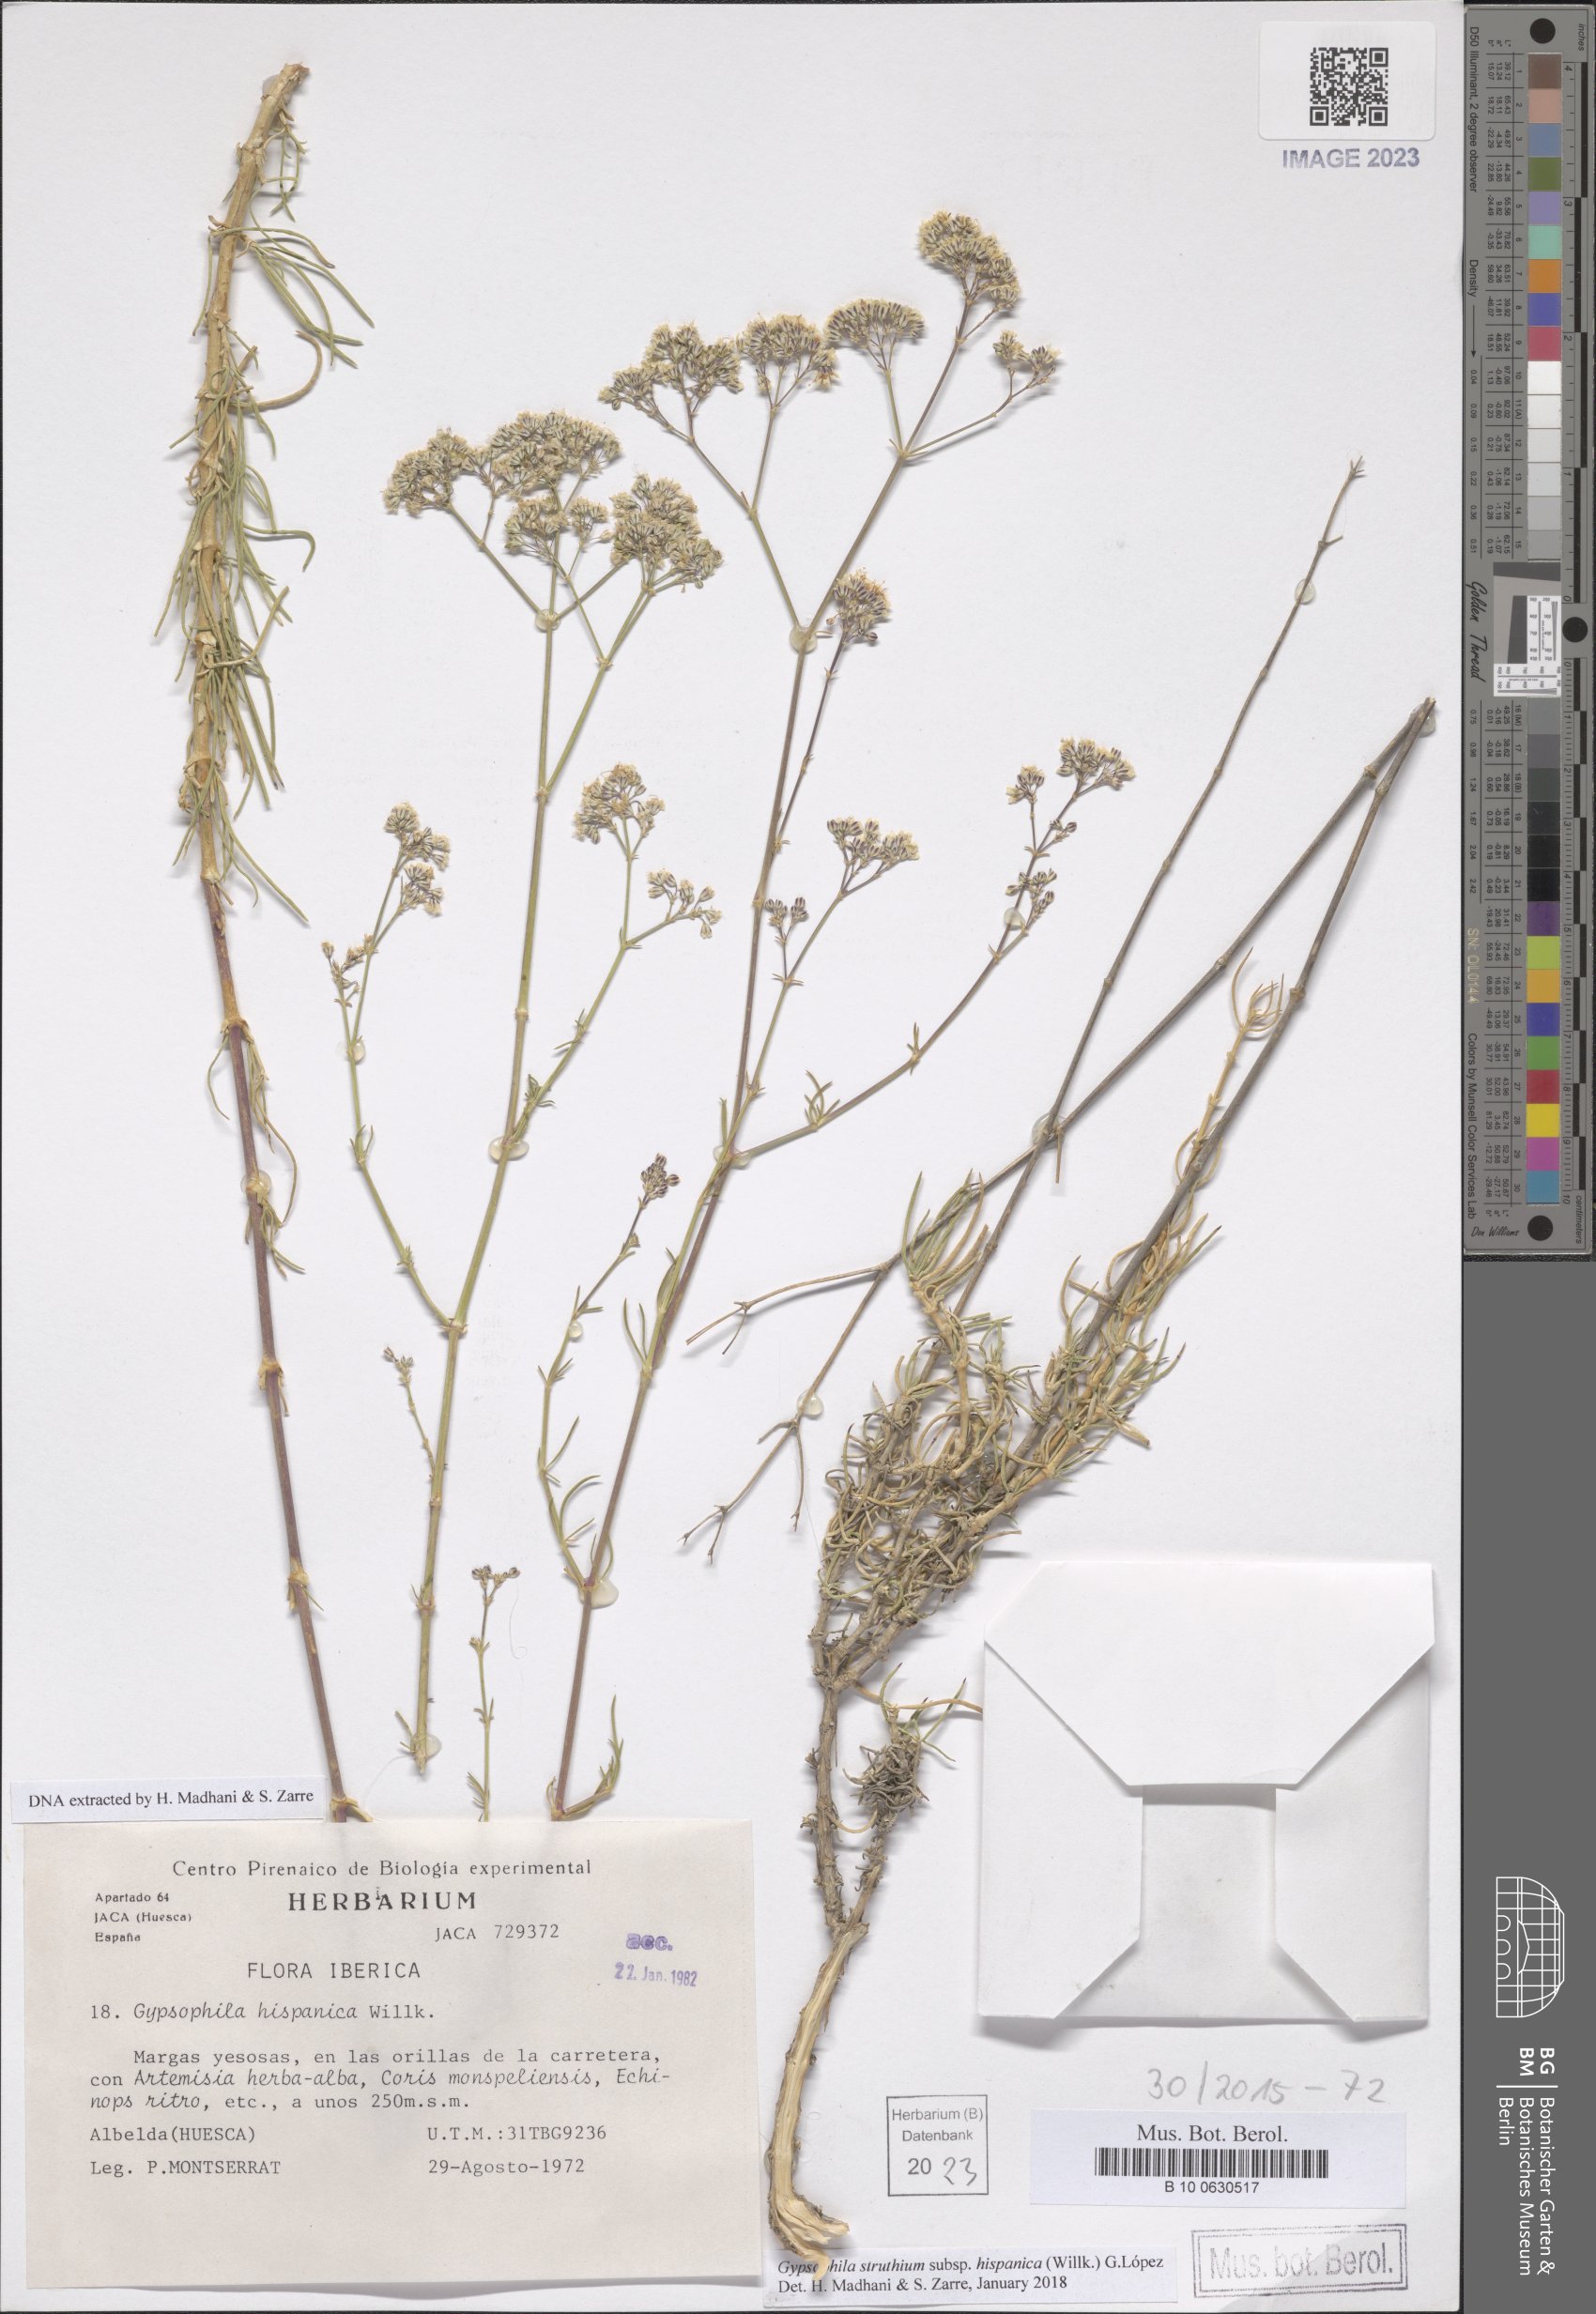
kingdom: Plantae
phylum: Tracheophyta
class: Magnoliopsida
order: Caryophyllales
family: Caryophyllaceae
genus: Gypsophila
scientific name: Gypsophila struthium
